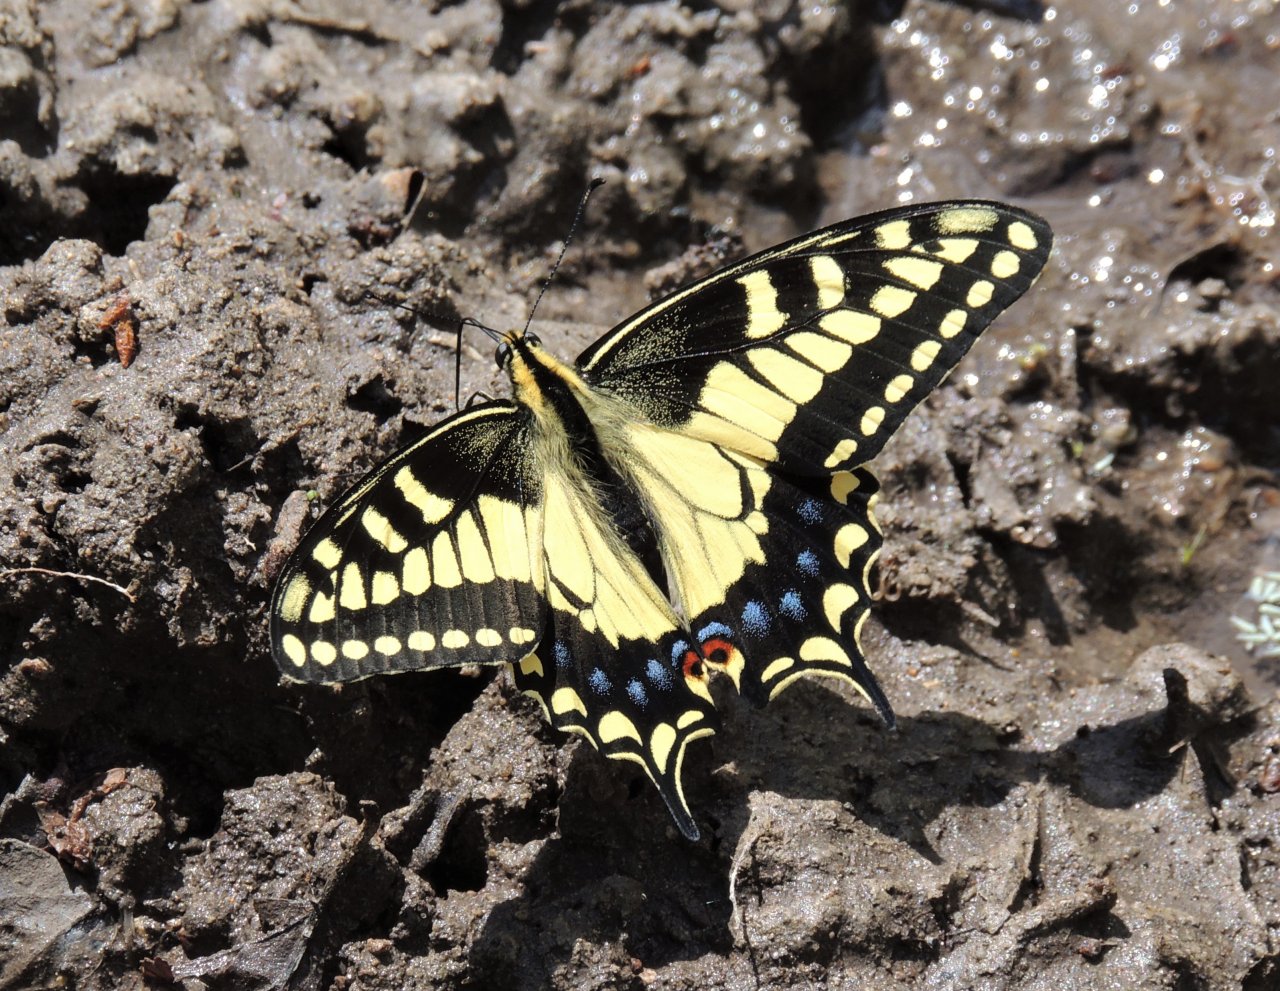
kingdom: Animalia
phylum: Arthropoda
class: Insecta
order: Lepidoptera
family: Papilionidae
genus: Papilio
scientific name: Papilio machaon
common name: Old World Swallowtail
